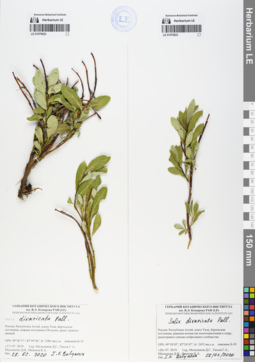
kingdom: Plantae
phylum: Tracheophyta
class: Magnoliopsida
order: Malpighiales
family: Salicaceae
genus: Salix
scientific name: Salix divaricata
